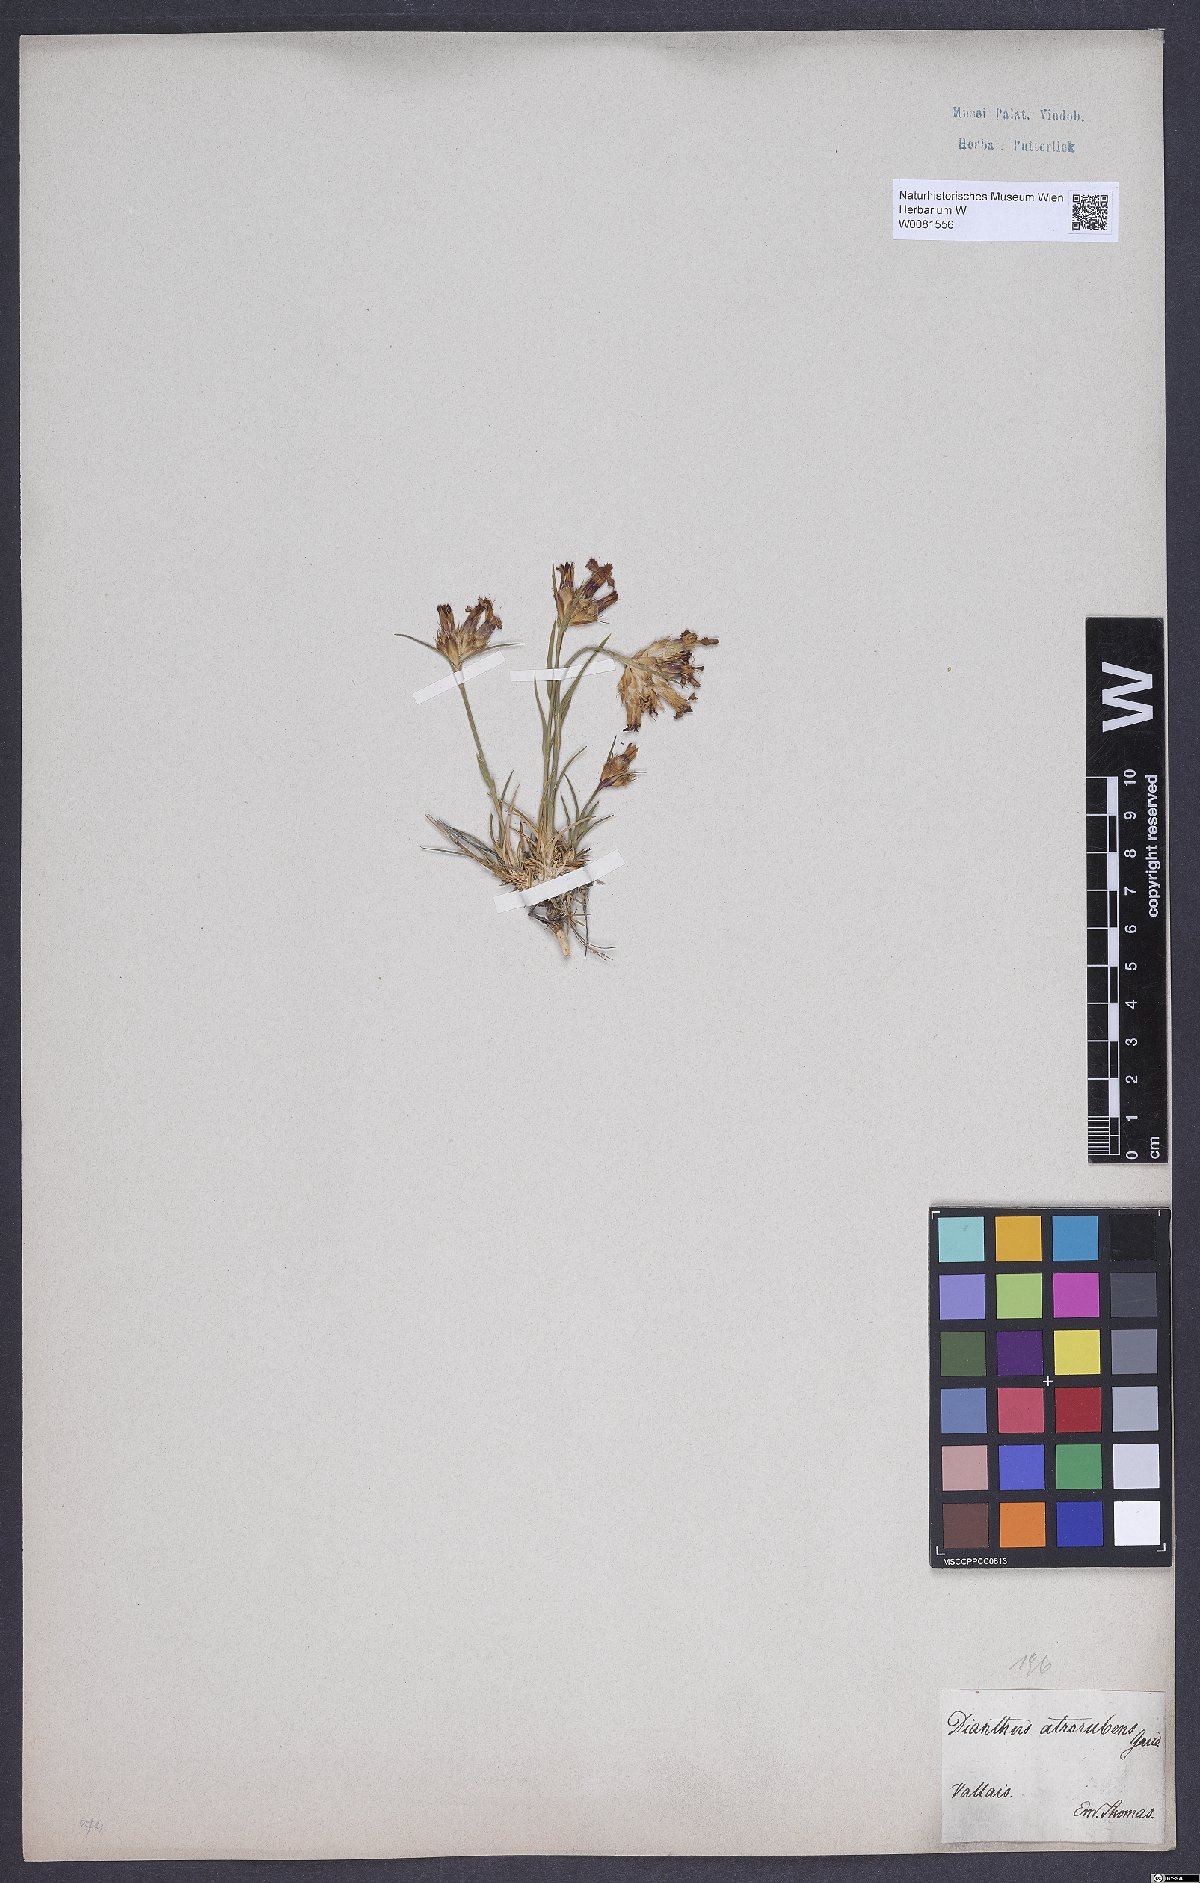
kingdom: Plantae
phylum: Tracheophyta
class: Magnoliopsida
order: Caryophyllales
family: Caryophyllaceae
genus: Dianthus
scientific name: Dianthus carthusianorum
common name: Carthusian pink
